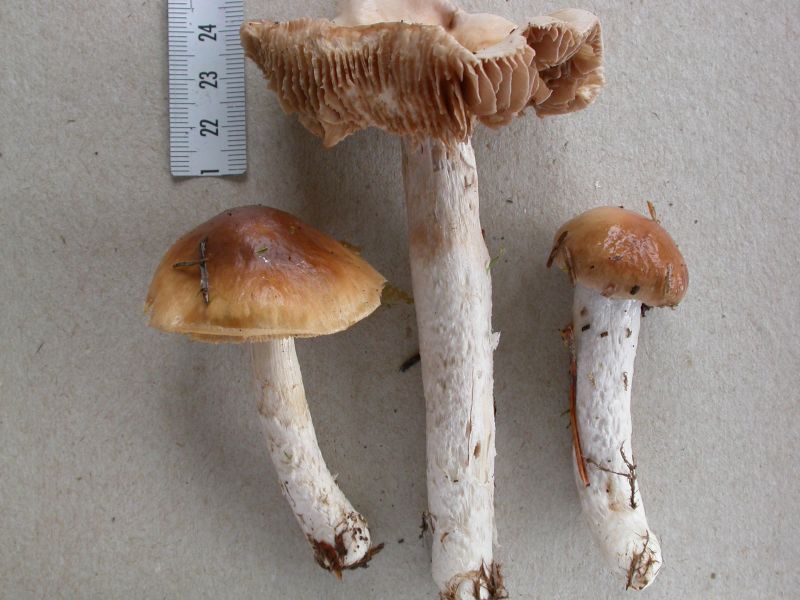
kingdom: Fungi
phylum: Basidiomycota
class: Agaricomycetes
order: Agaricales
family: Cortinariaceae
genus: Cortinarius
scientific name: Cortinarius stillatitius
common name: honningduftende slørhat
